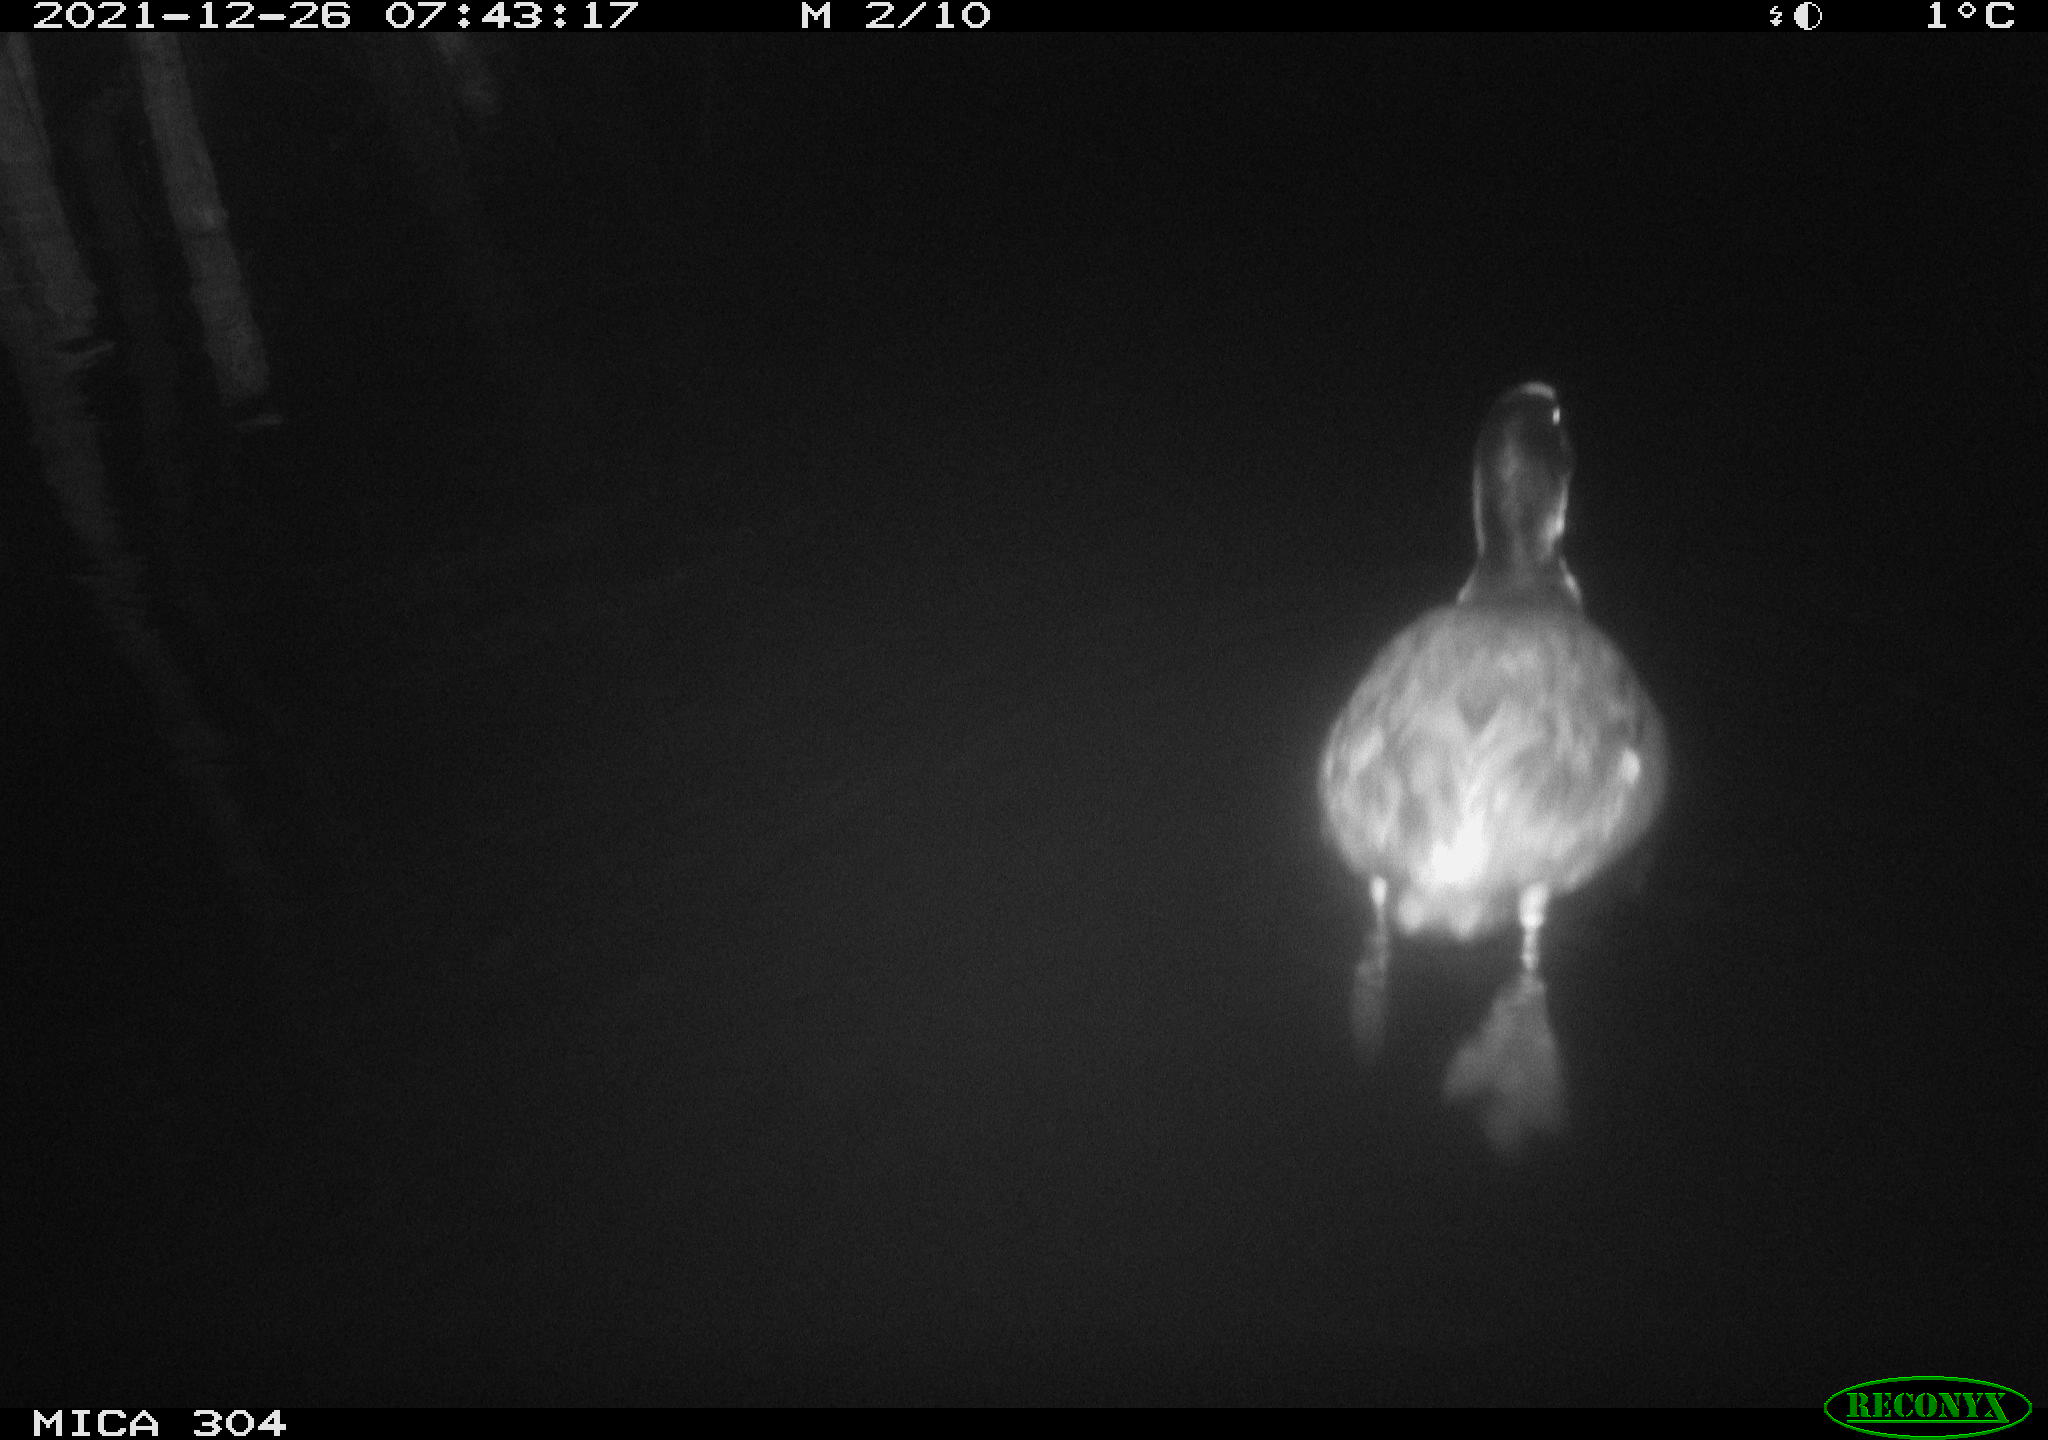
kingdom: Animalia
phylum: Chordata
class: Aves
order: Gruiformes
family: Rallidae
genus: Fulica
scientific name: Fulica atra
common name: Eurasian coot
